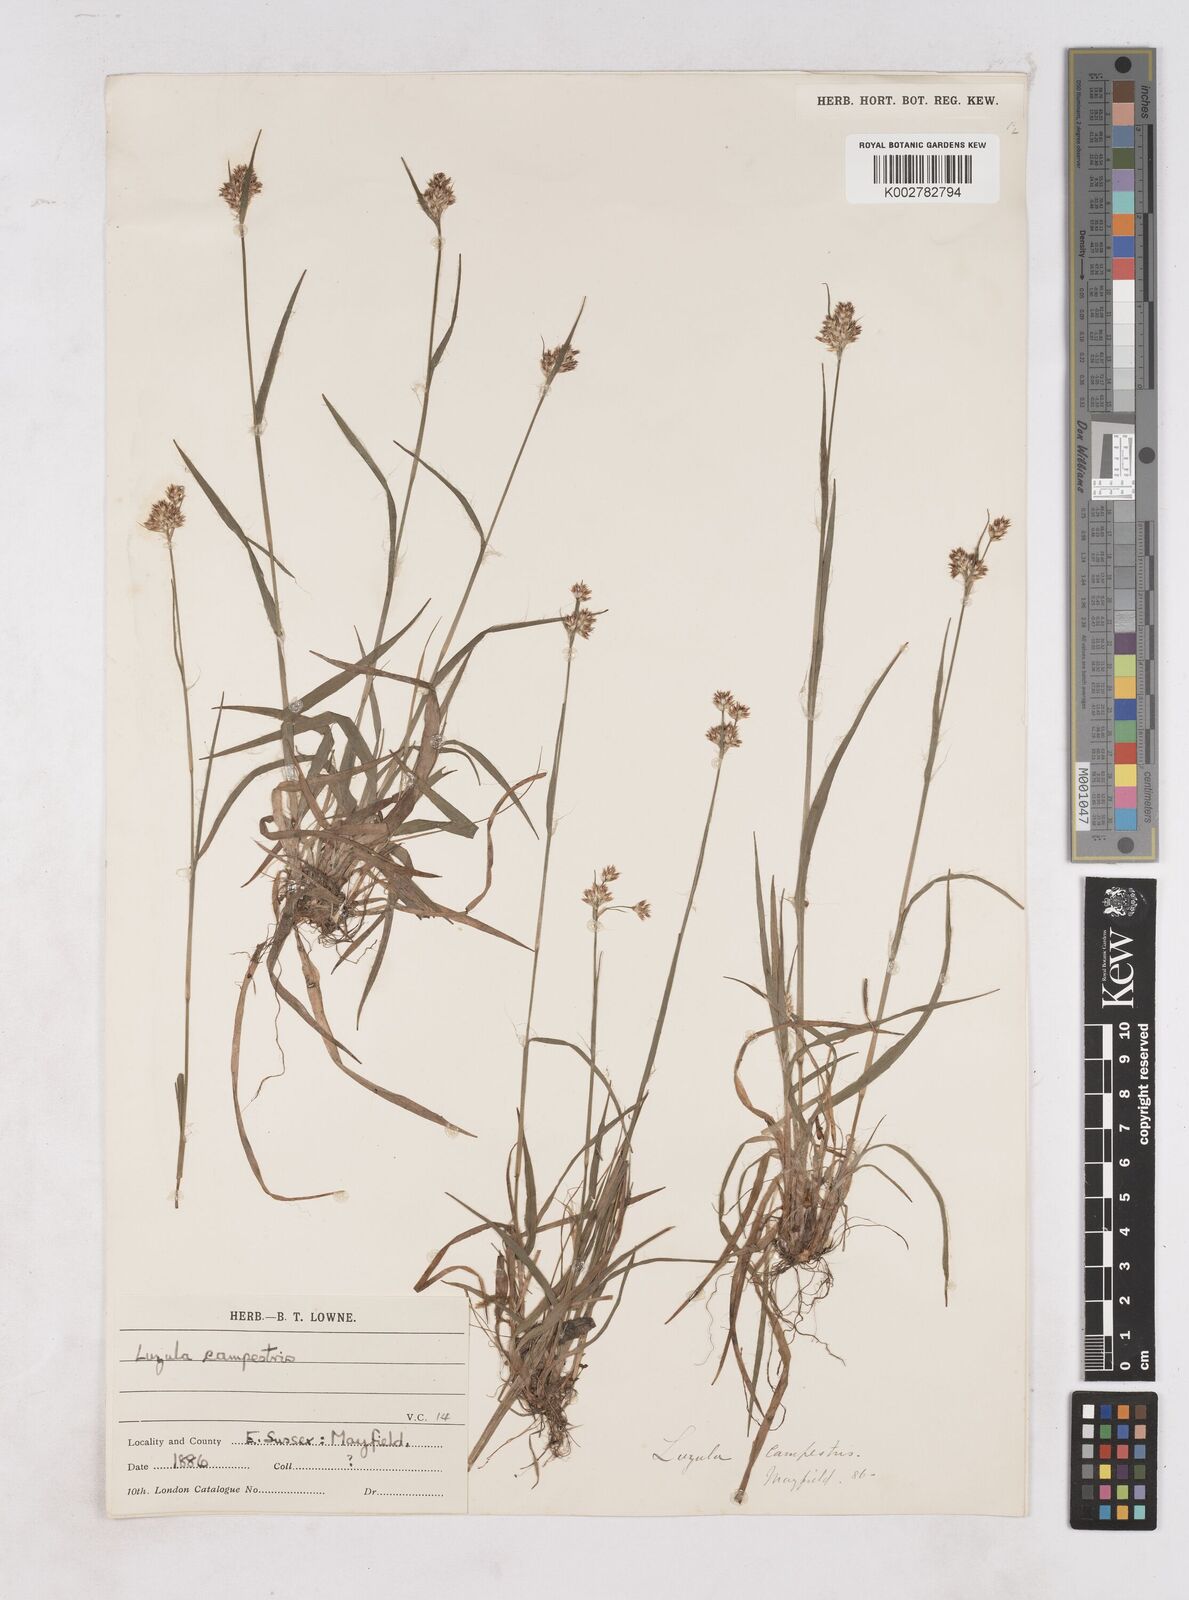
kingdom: Plantae
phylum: Tracheophyta
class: Liliopsida
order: Poales
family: Juncaceae
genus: Luzula
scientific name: Luzula campestris
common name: Field wood-rush
